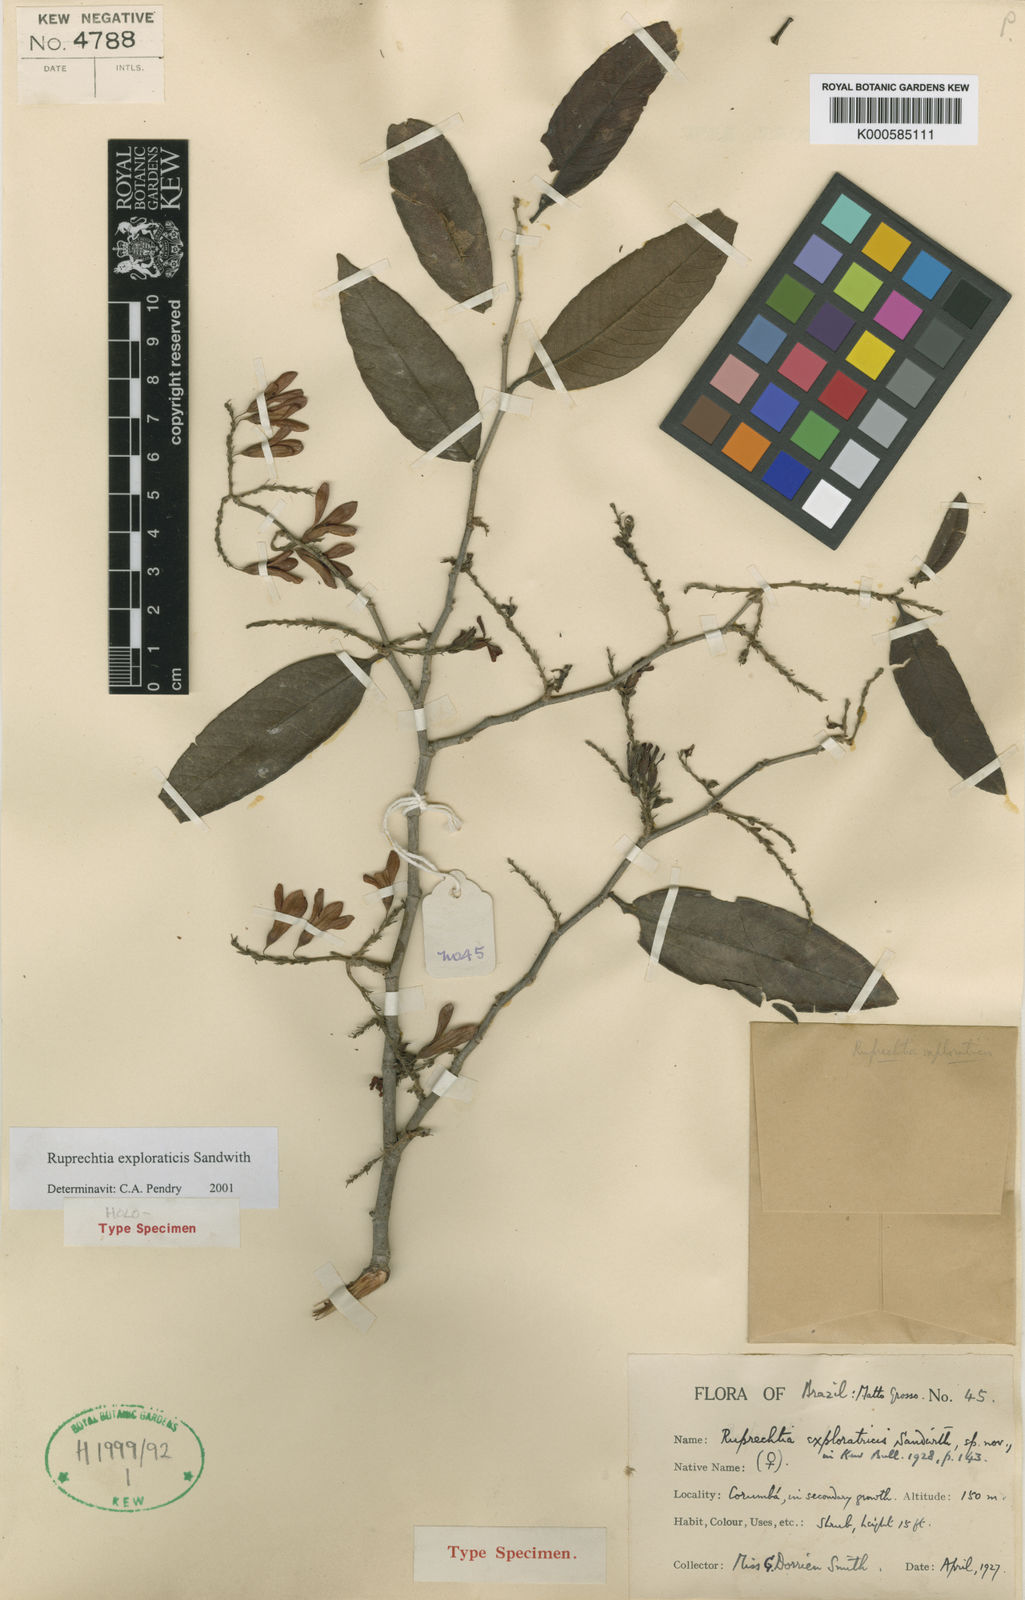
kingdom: Plantae
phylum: Tracheophyta
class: Magnoliopsida
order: Caryophyllales
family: Polygonaceae
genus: Ruprechtia
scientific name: Ruprechtia exploratricis
